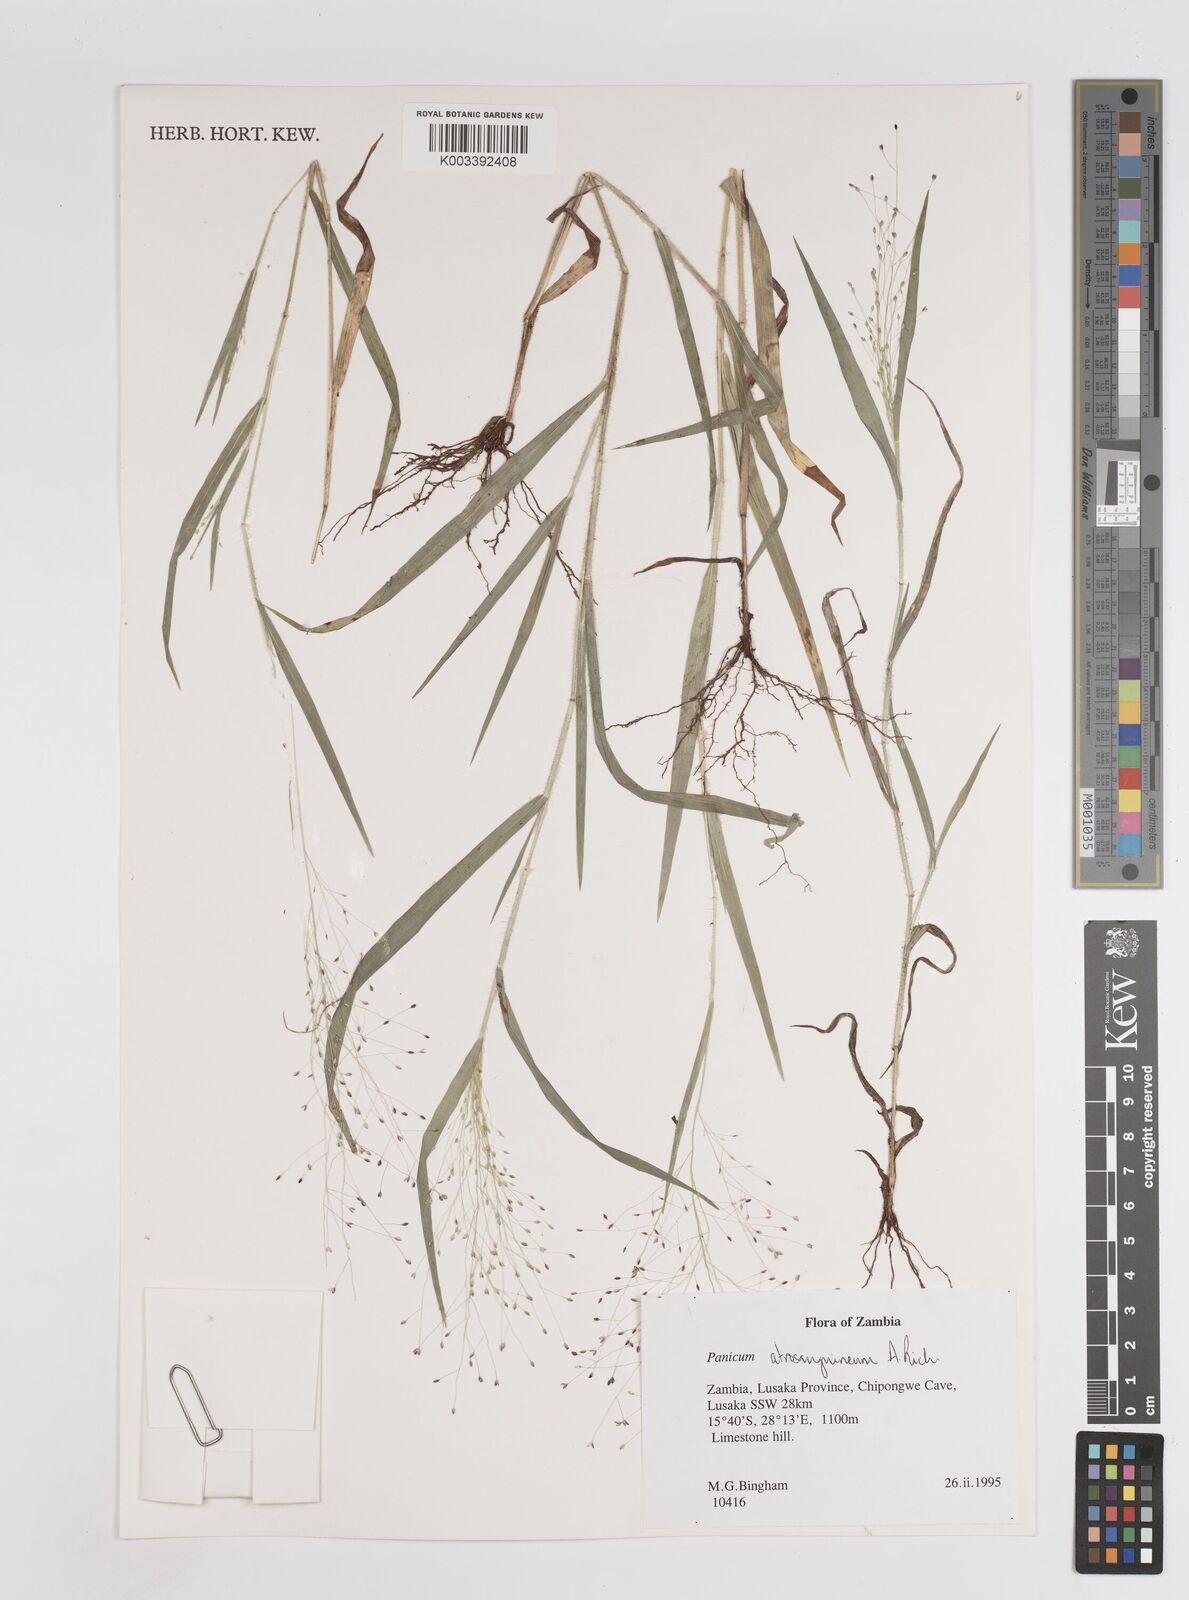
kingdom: Plantae
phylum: Tracheophyta
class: Liliopsida
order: Poales
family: Poaceae
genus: Panicum
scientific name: Panicum atrosanguineum
